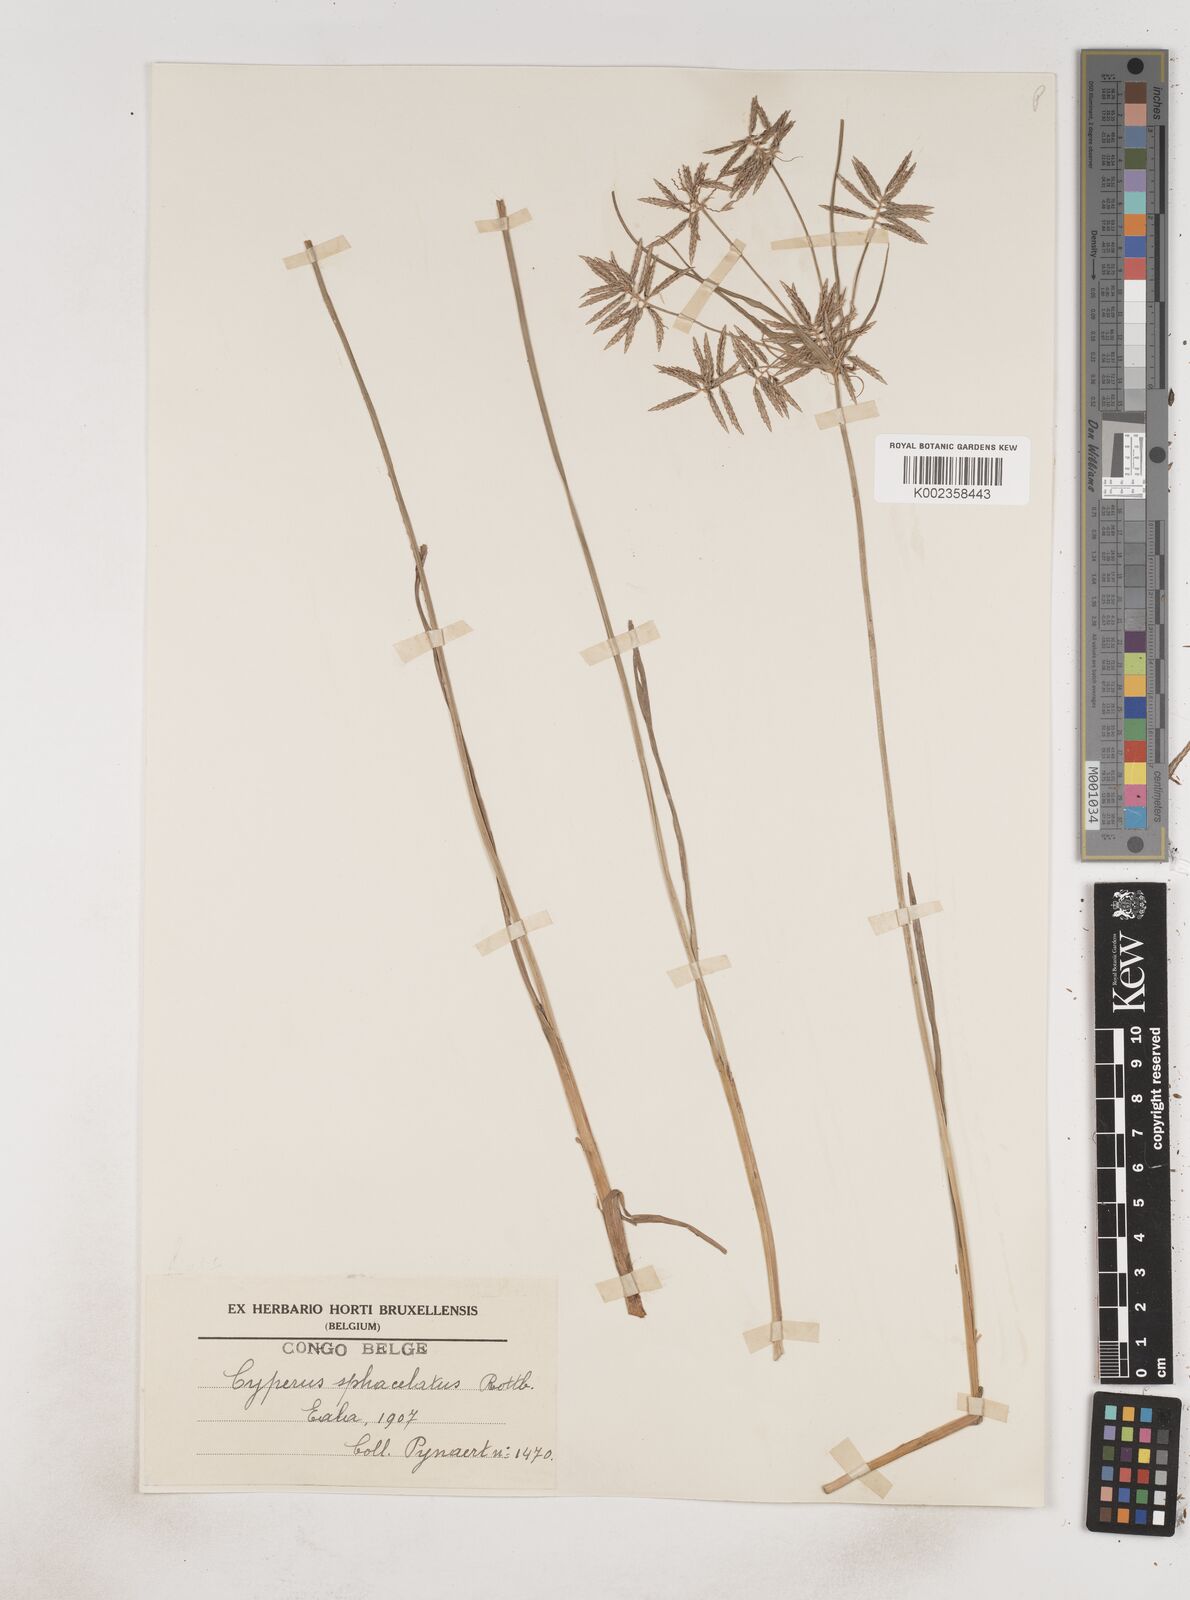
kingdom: Plantae
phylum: Tracheophyta
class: Liliopsida
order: Poales
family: Cyperaceae
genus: Cyperus
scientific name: Cyperus sphacelatus
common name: Roadside flatsedge
